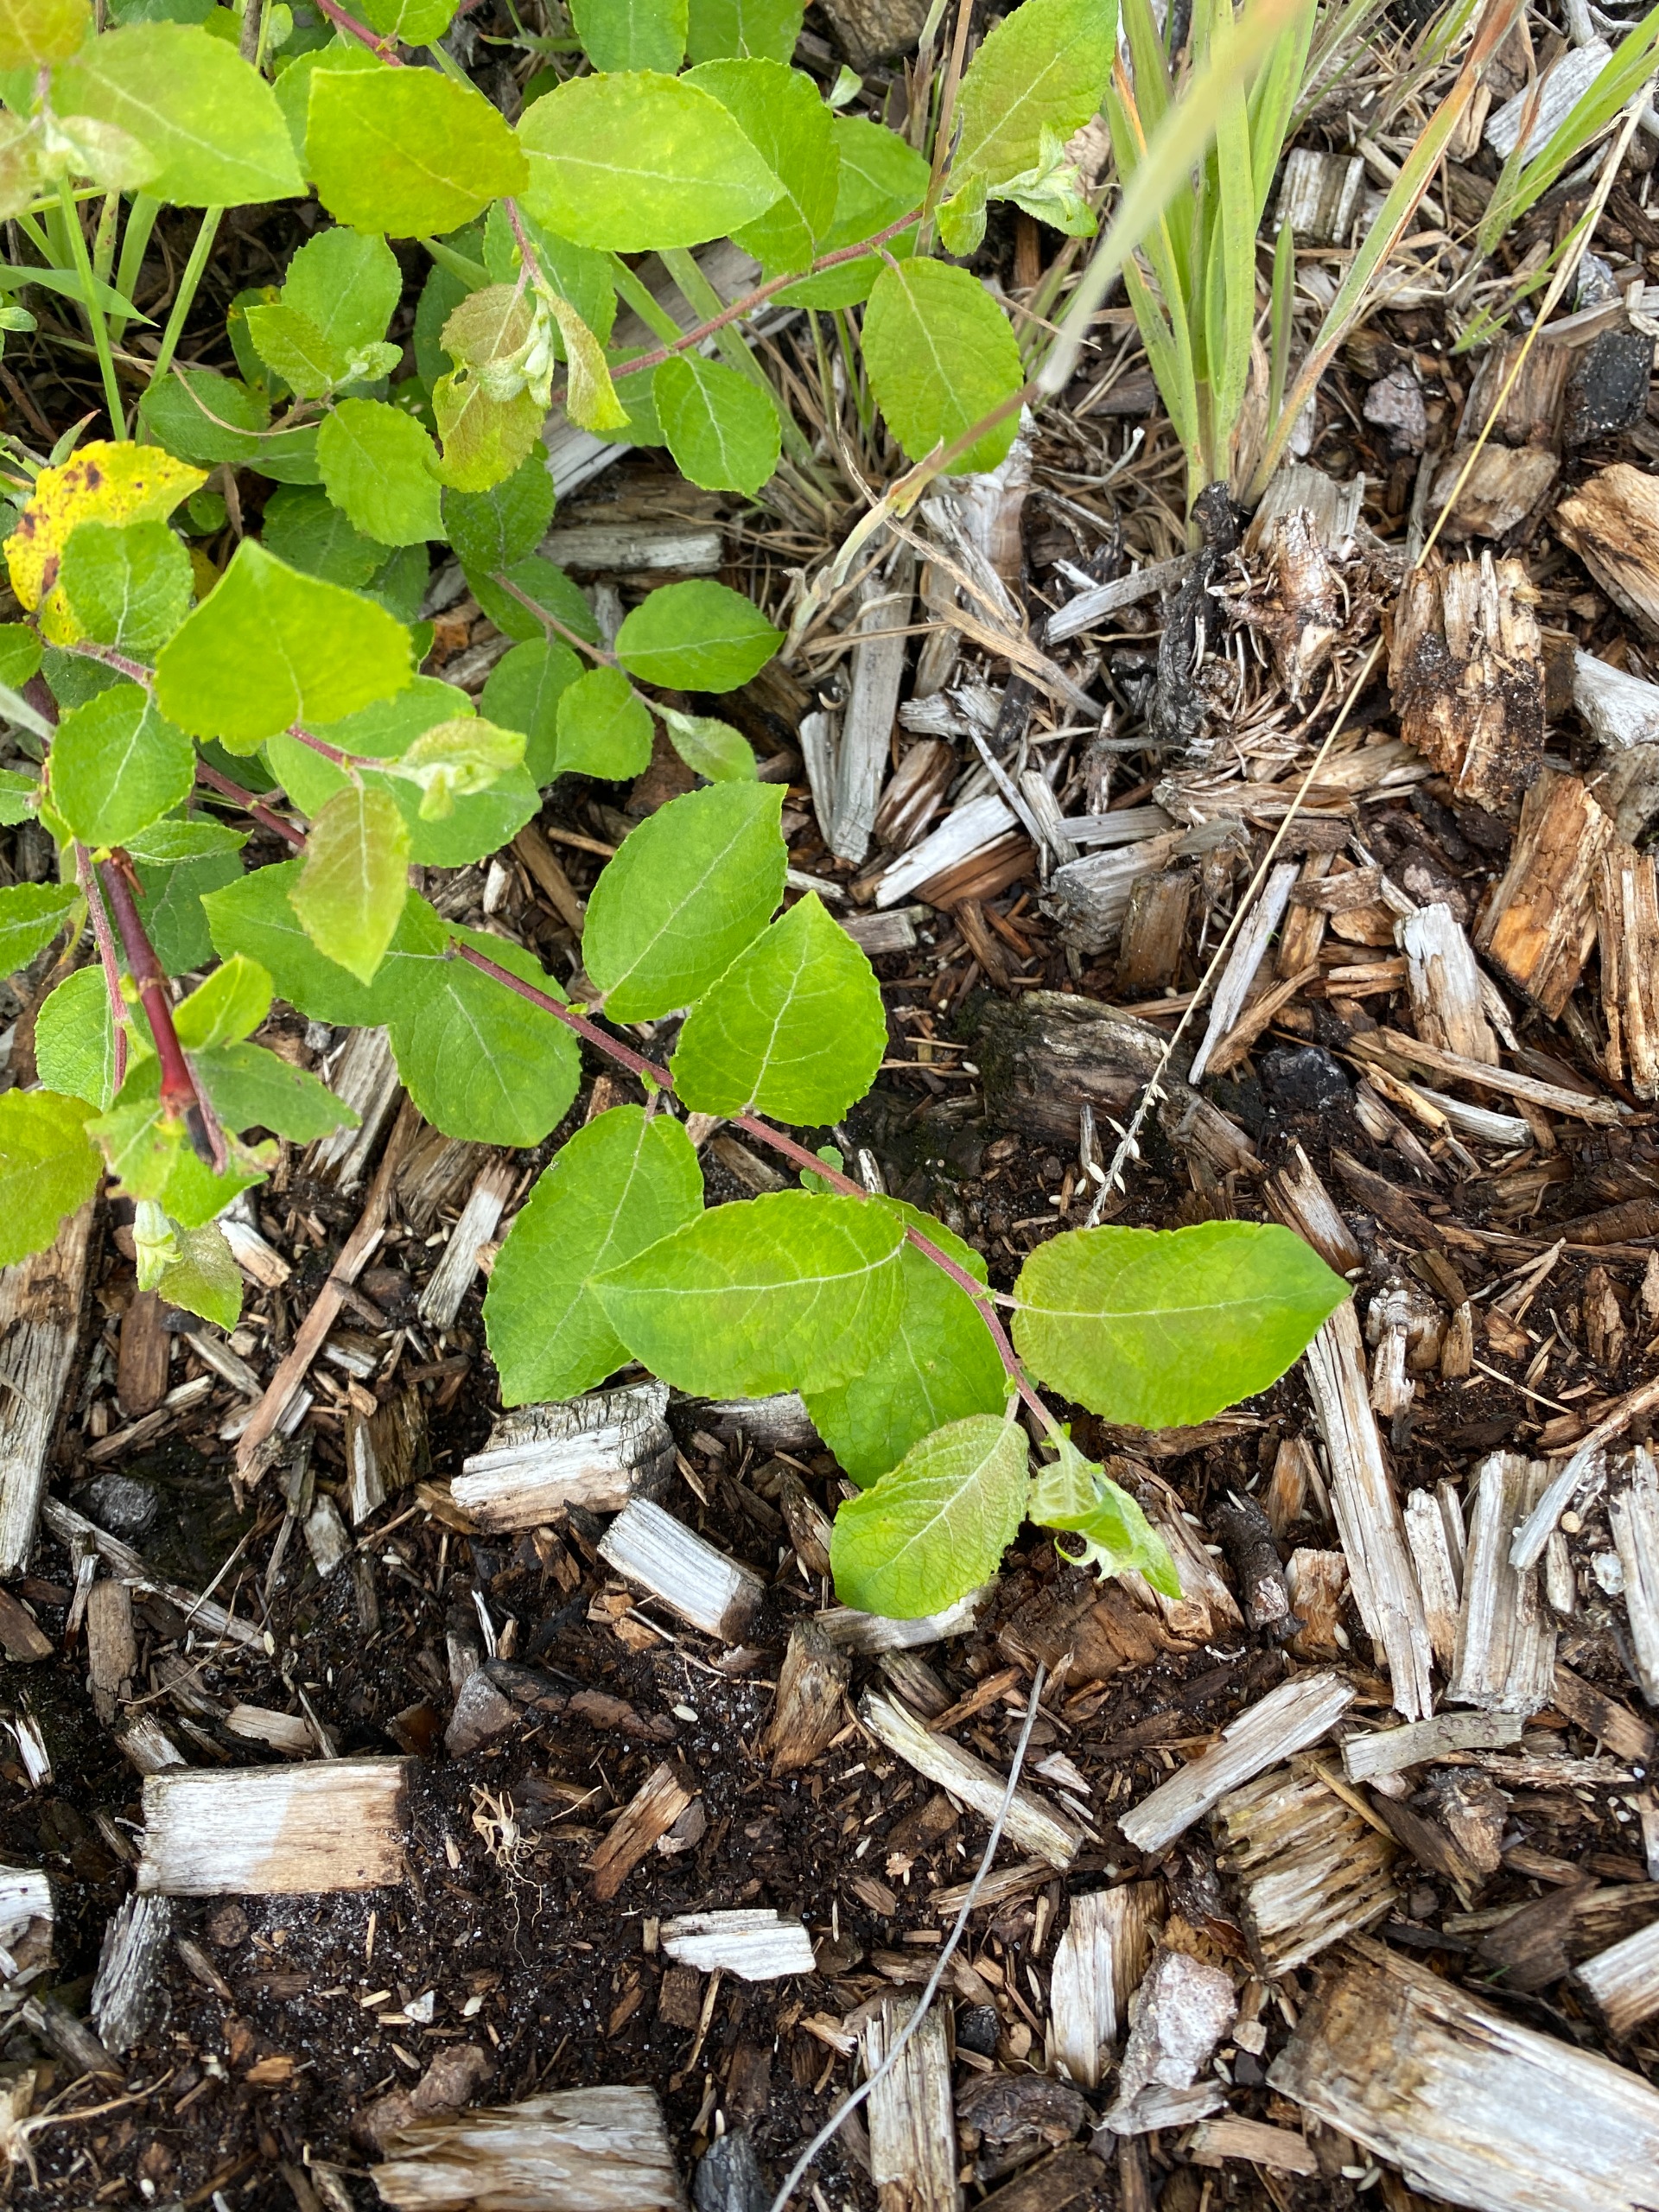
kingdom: Plantae
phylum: Tracheophyta
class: Magnoliopsida
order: Malpighiales
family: Salicaceae
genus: Salix
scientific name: Salix caprea
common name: Selje-pil
